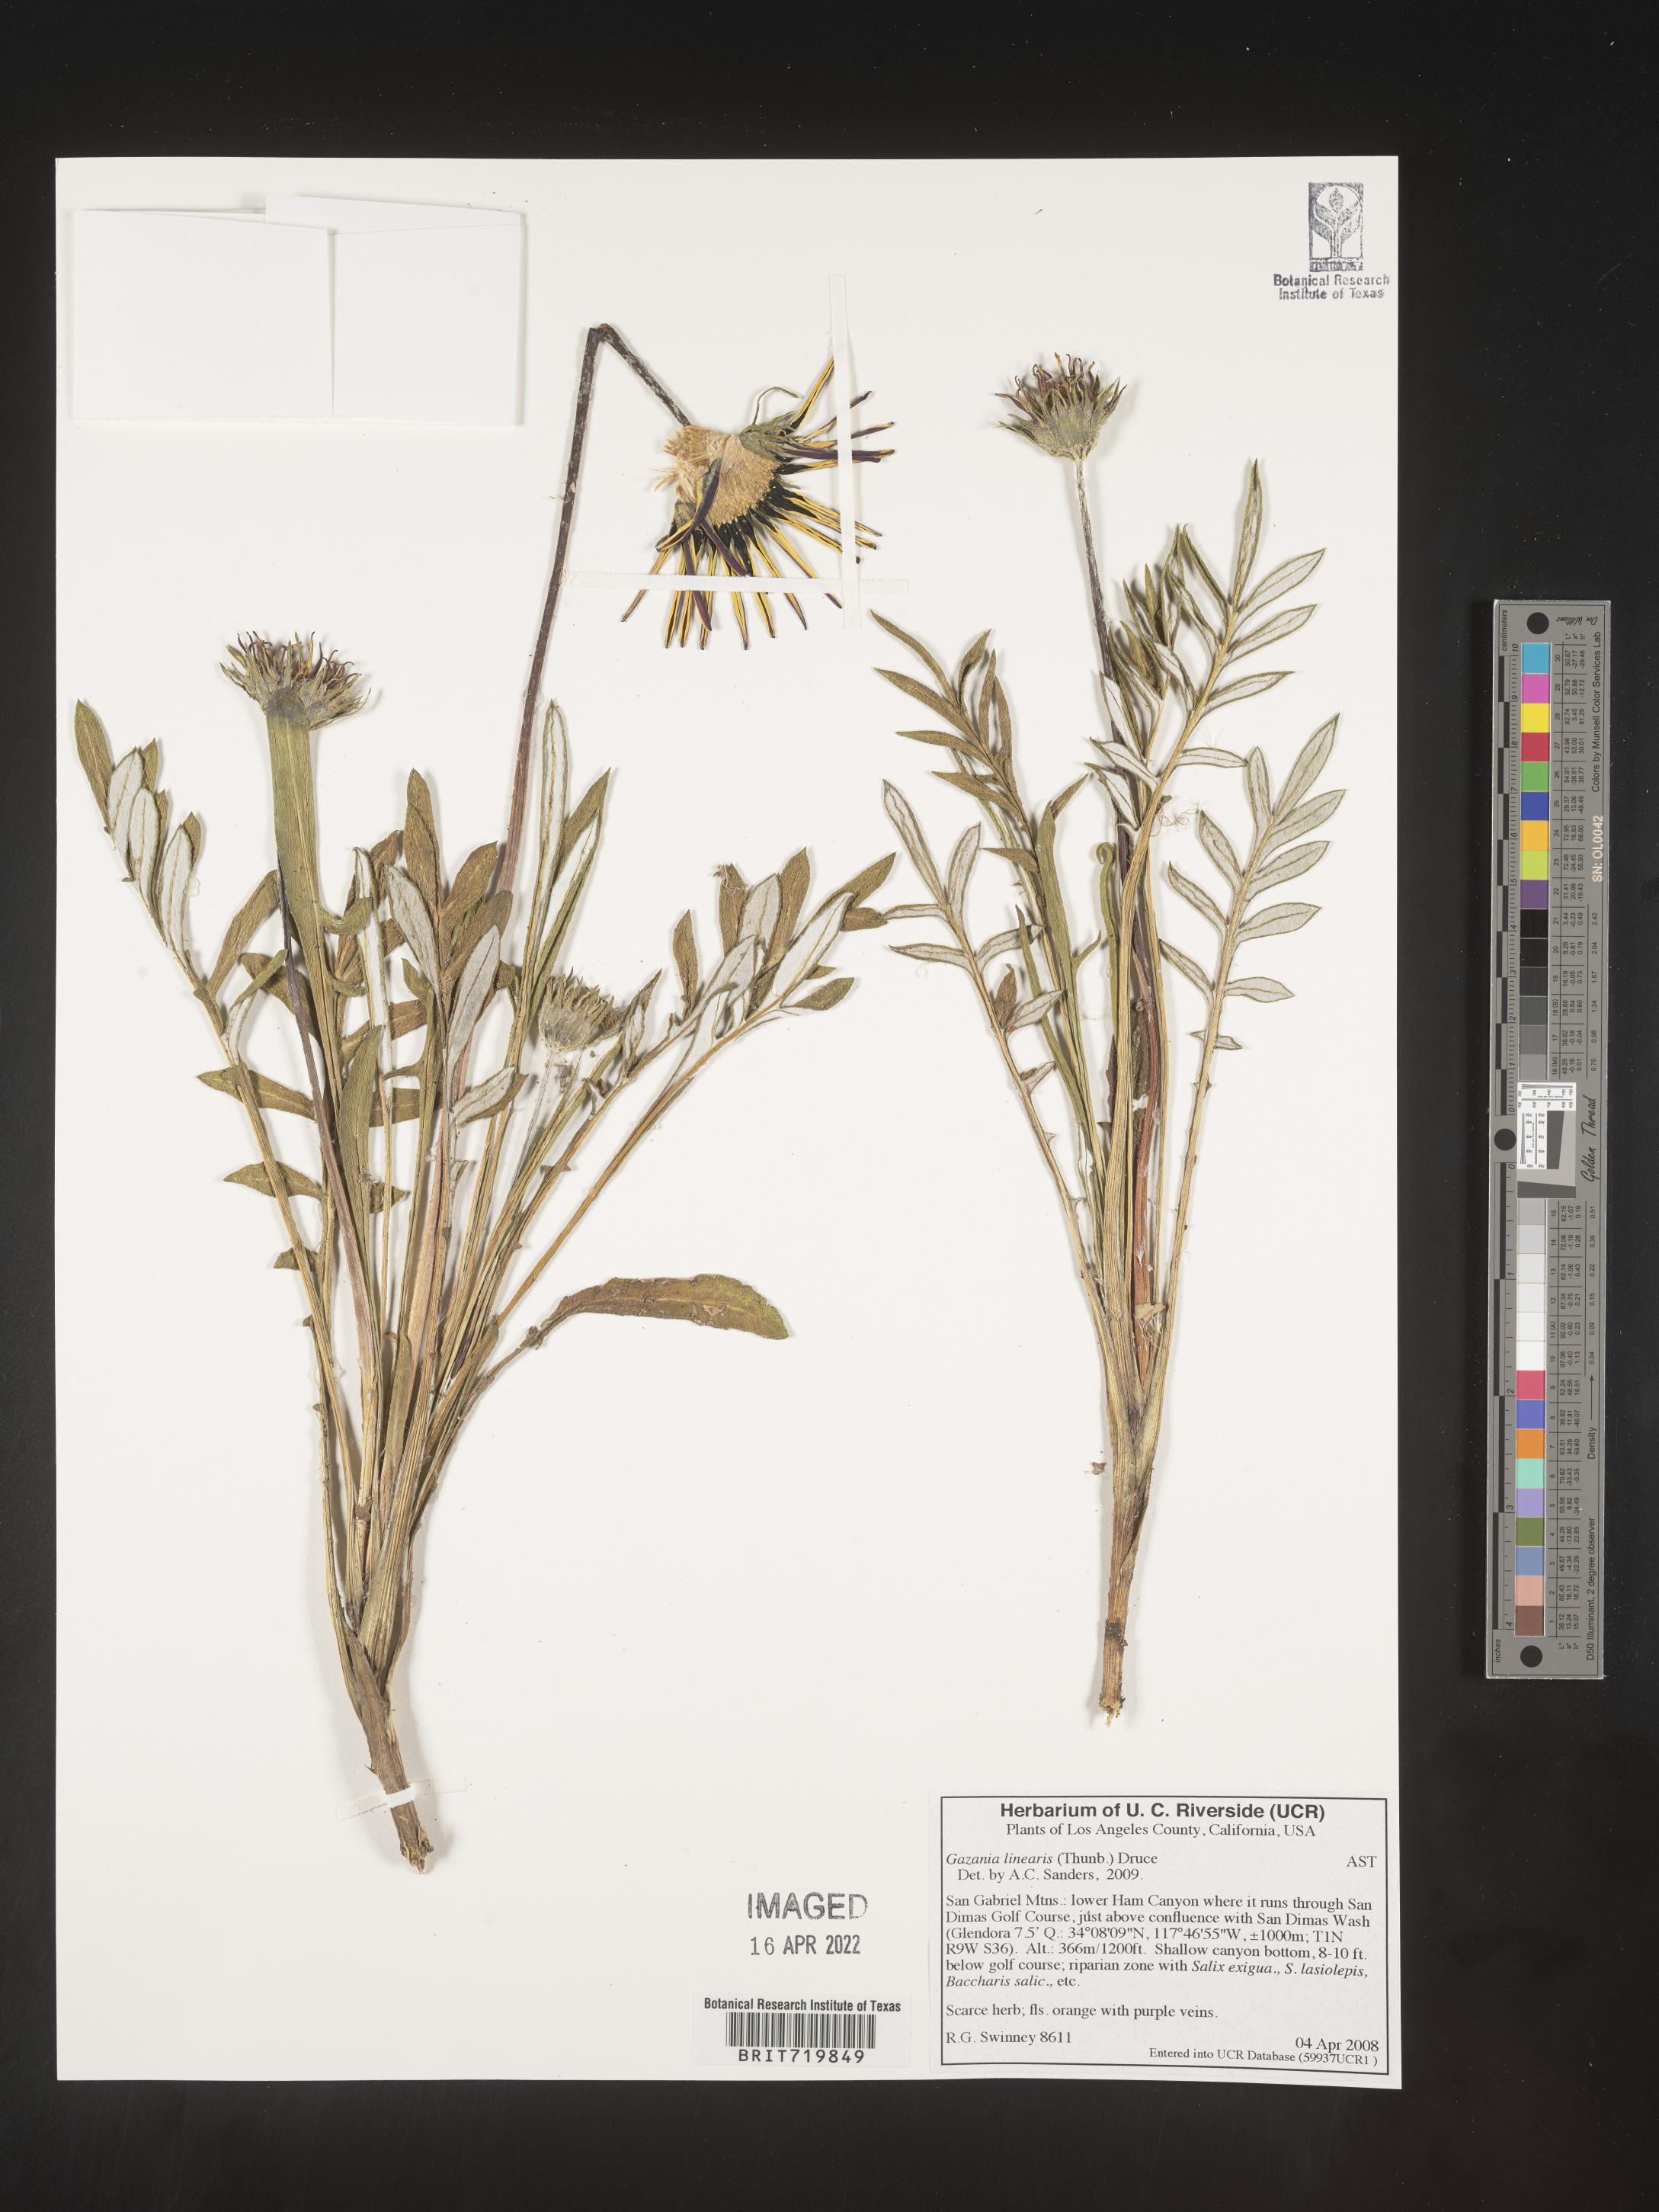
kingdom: Plantae
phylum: Tracheophyta
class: Magnoliopsida
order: Asterales
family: Asteraceae
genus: Gazania
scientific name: Gazania
